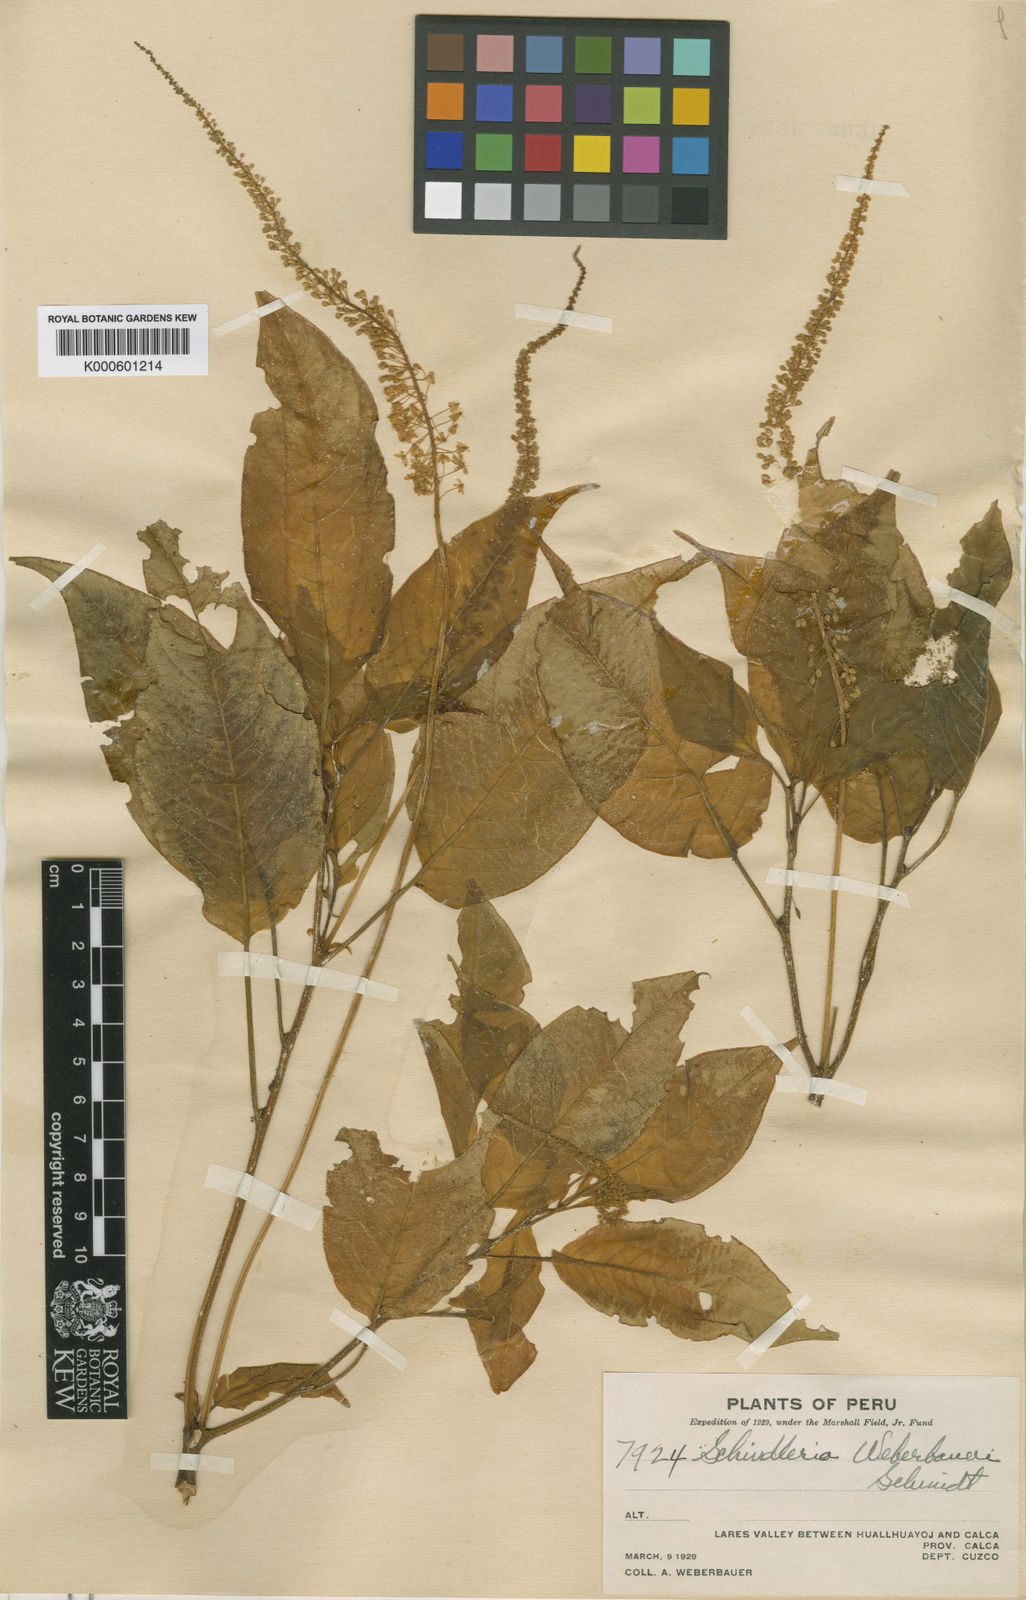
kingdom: Plantae
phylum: Tracheophyta
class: Magnoliopsida
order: Caryophyllales
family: Phytolaccaceae
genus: Schindleria
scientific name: Schindleria densiflora
